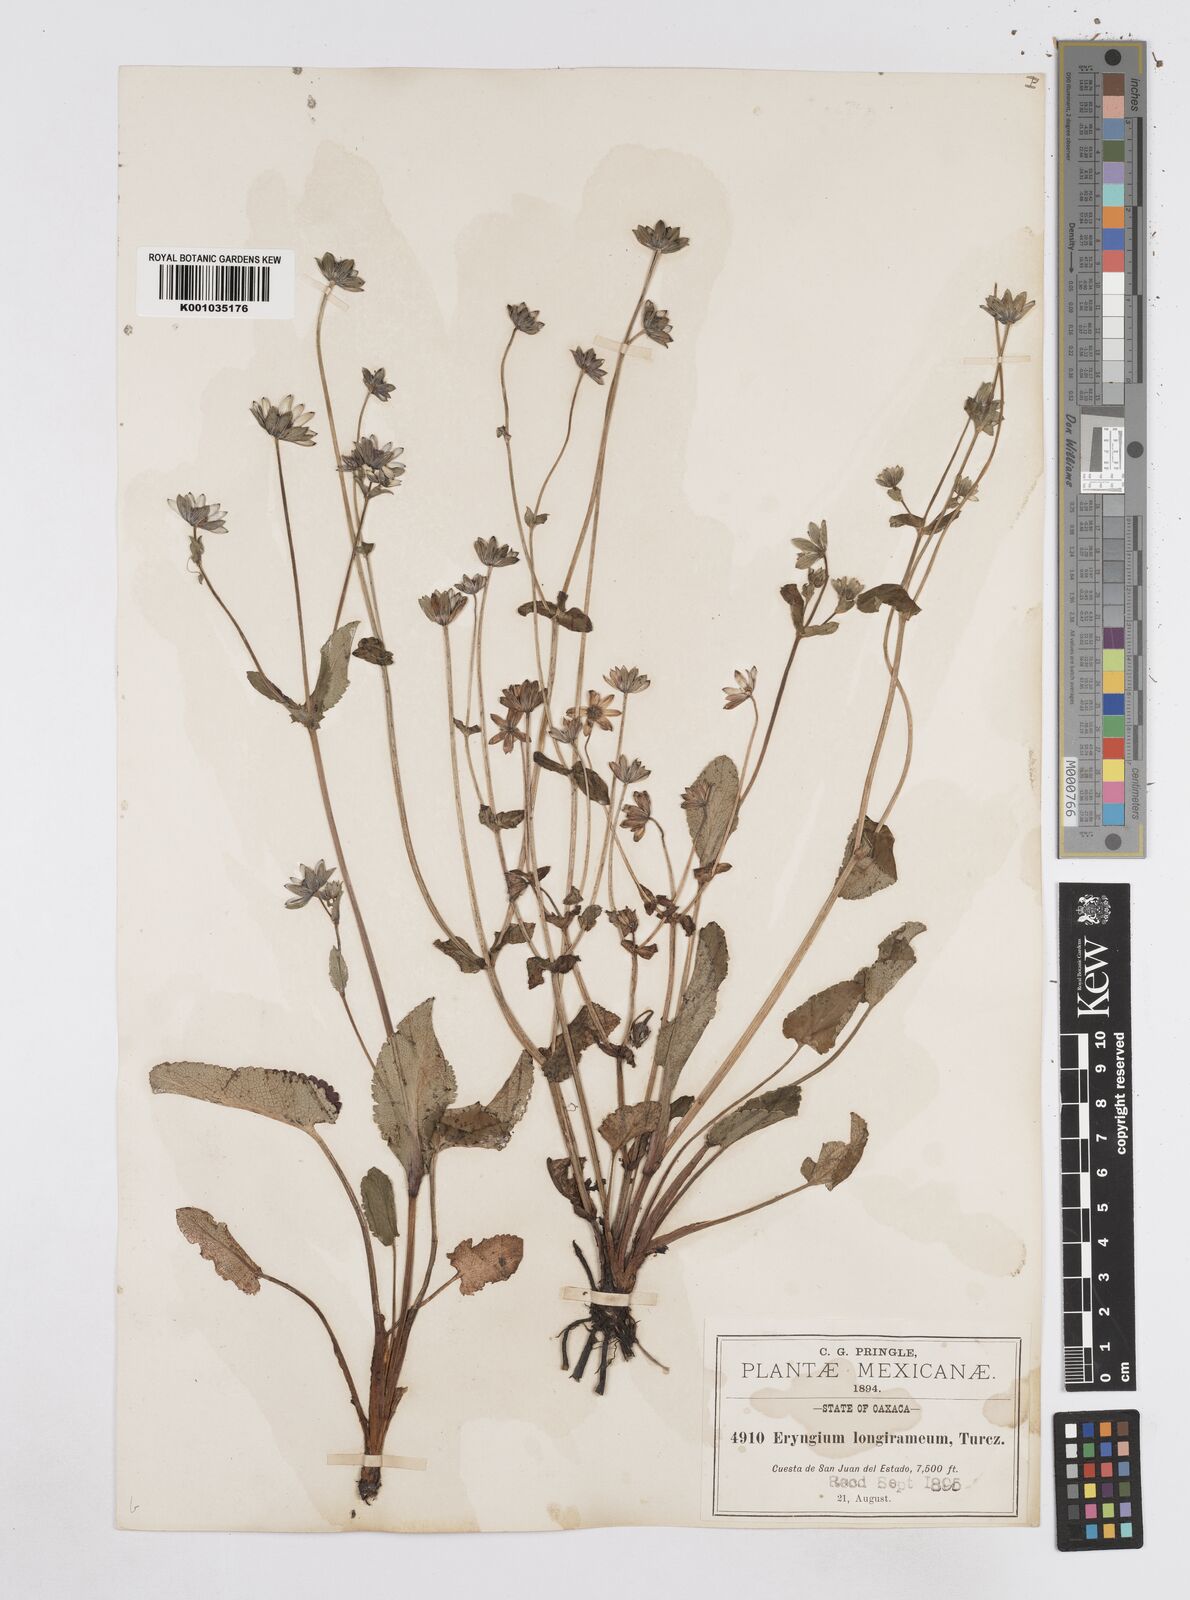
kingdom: Plantae
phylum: Tracheophyta
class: Magnoliopsida
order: Apiales
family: Apiaceae
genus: Eryngium
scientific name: Eryngium gracile
